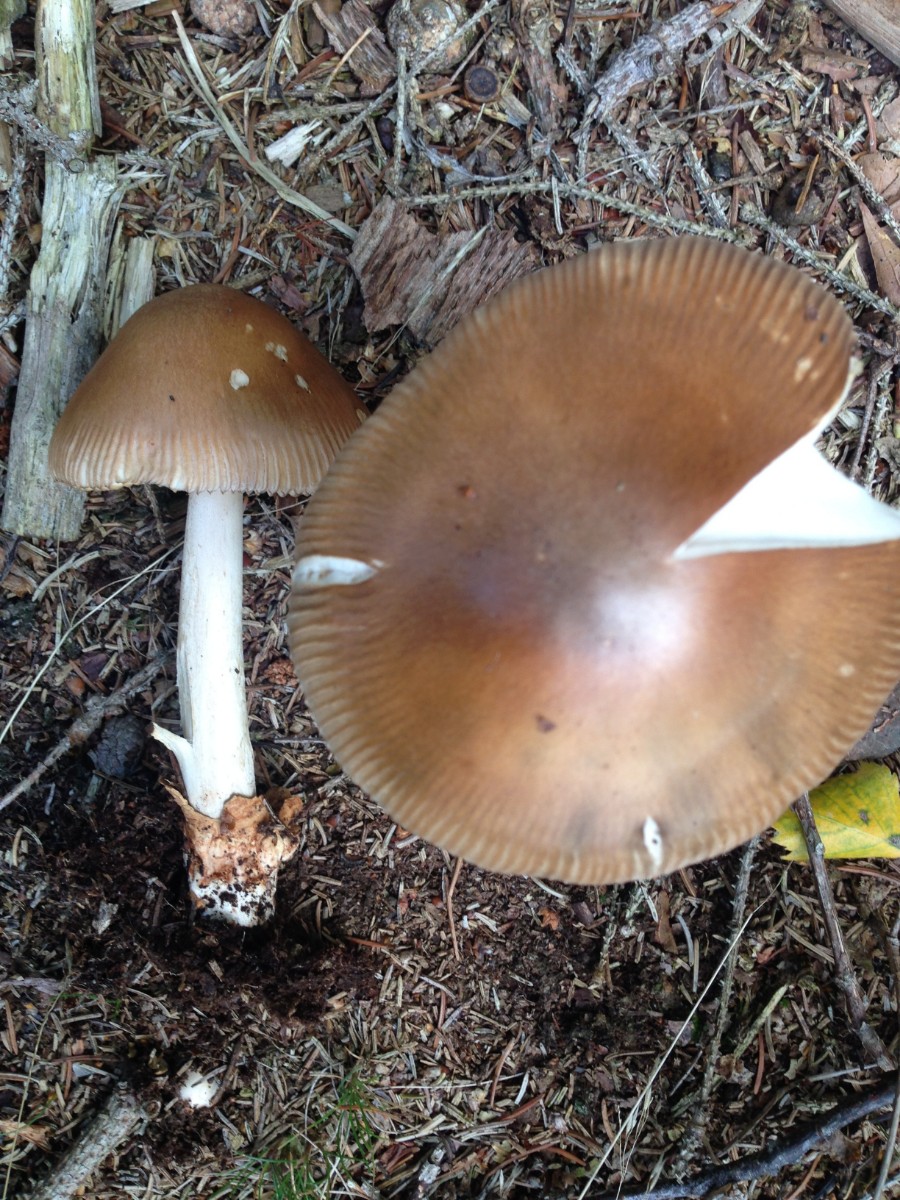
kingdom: Fungi
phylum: Basidiomycota
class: Agaricomycetes
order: Agaricales
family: Amanitaceae
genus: Amanita
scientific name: Amanita fulva
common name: brun kam-fluesvamp
